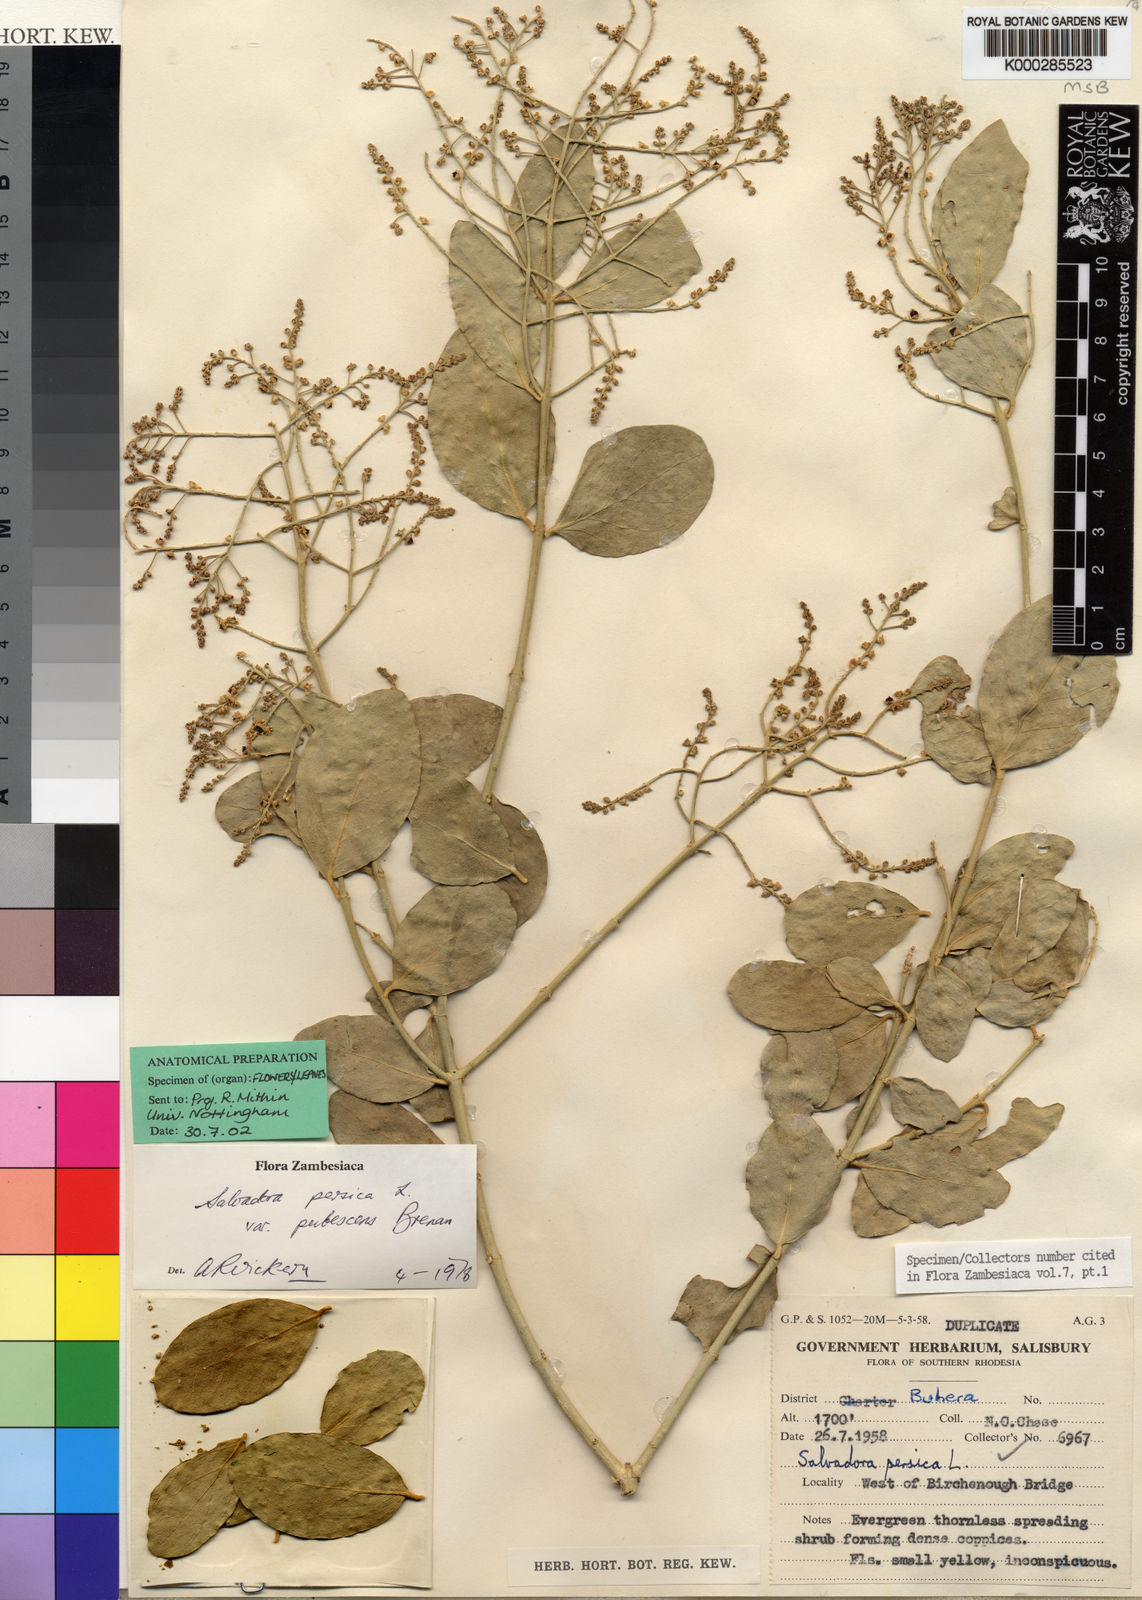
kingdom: Plantae
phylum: Tracheophyta
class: Magnoliopsida
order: Brassicales
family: Salvadoraceae
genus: Salvadora
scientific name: Salvadora persica
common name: Toothbrushtree
